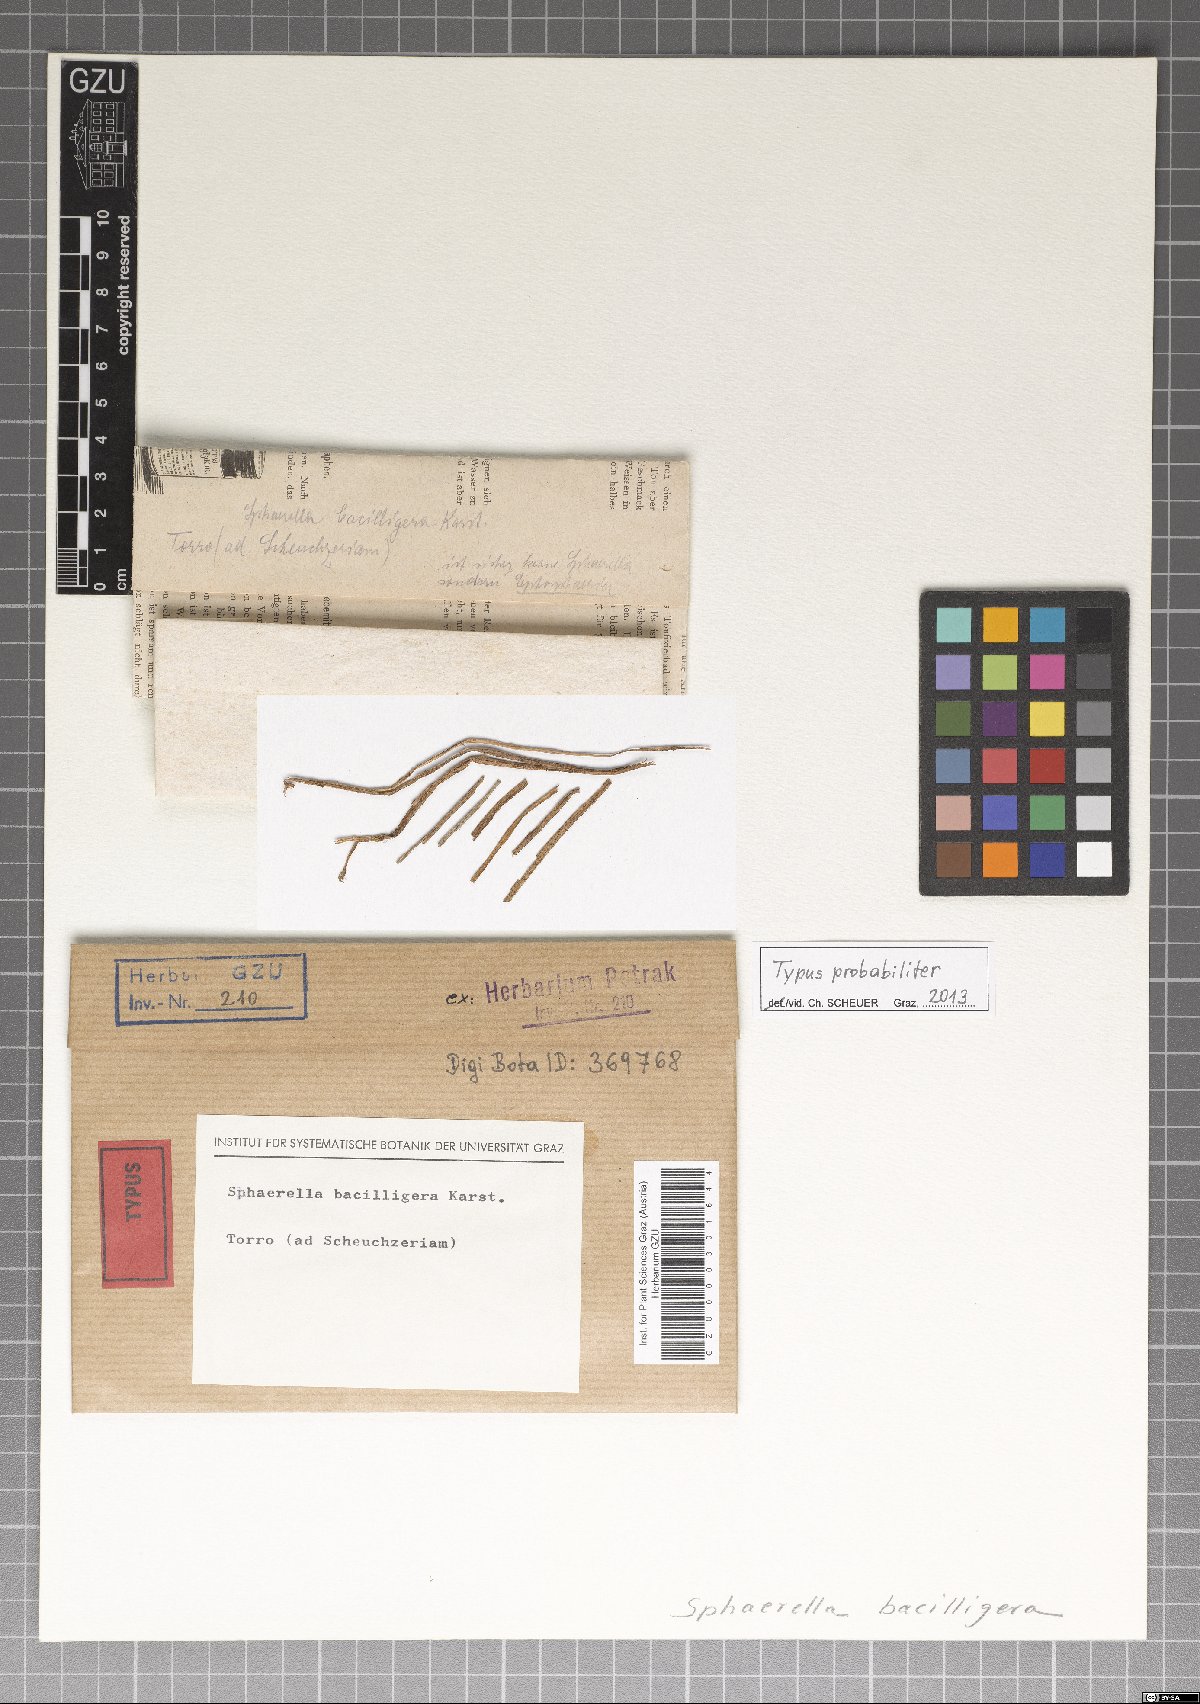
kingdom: Fungi
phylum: Ascomycota
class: Dothideomycetes
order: Mycosphaerellales
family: Mycosphaerellaceae
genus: Mycosphaerella
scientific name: Mycosphaerella bacillifera
